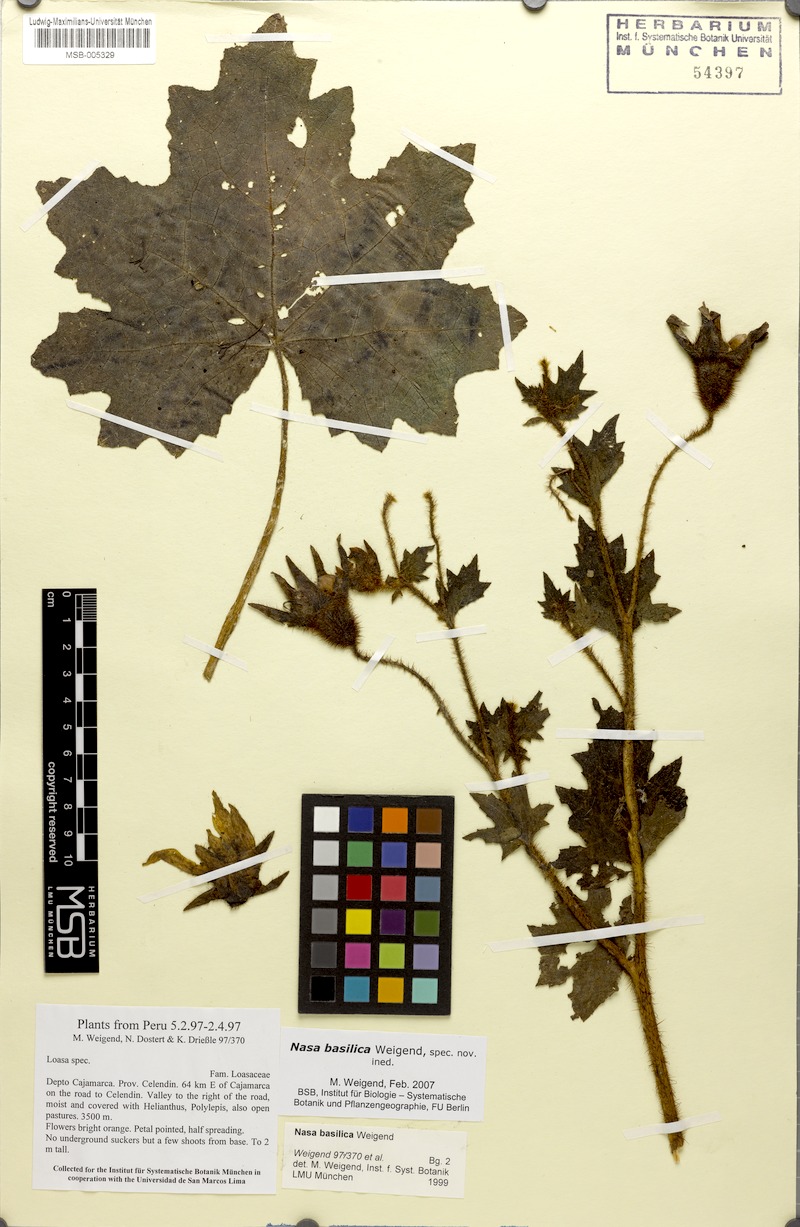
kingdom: Plantae
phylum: Tracheophyta
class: Magnoliopsida
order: Cornales
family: Loasaceae
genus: Nasa
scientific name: Nasa basilica
